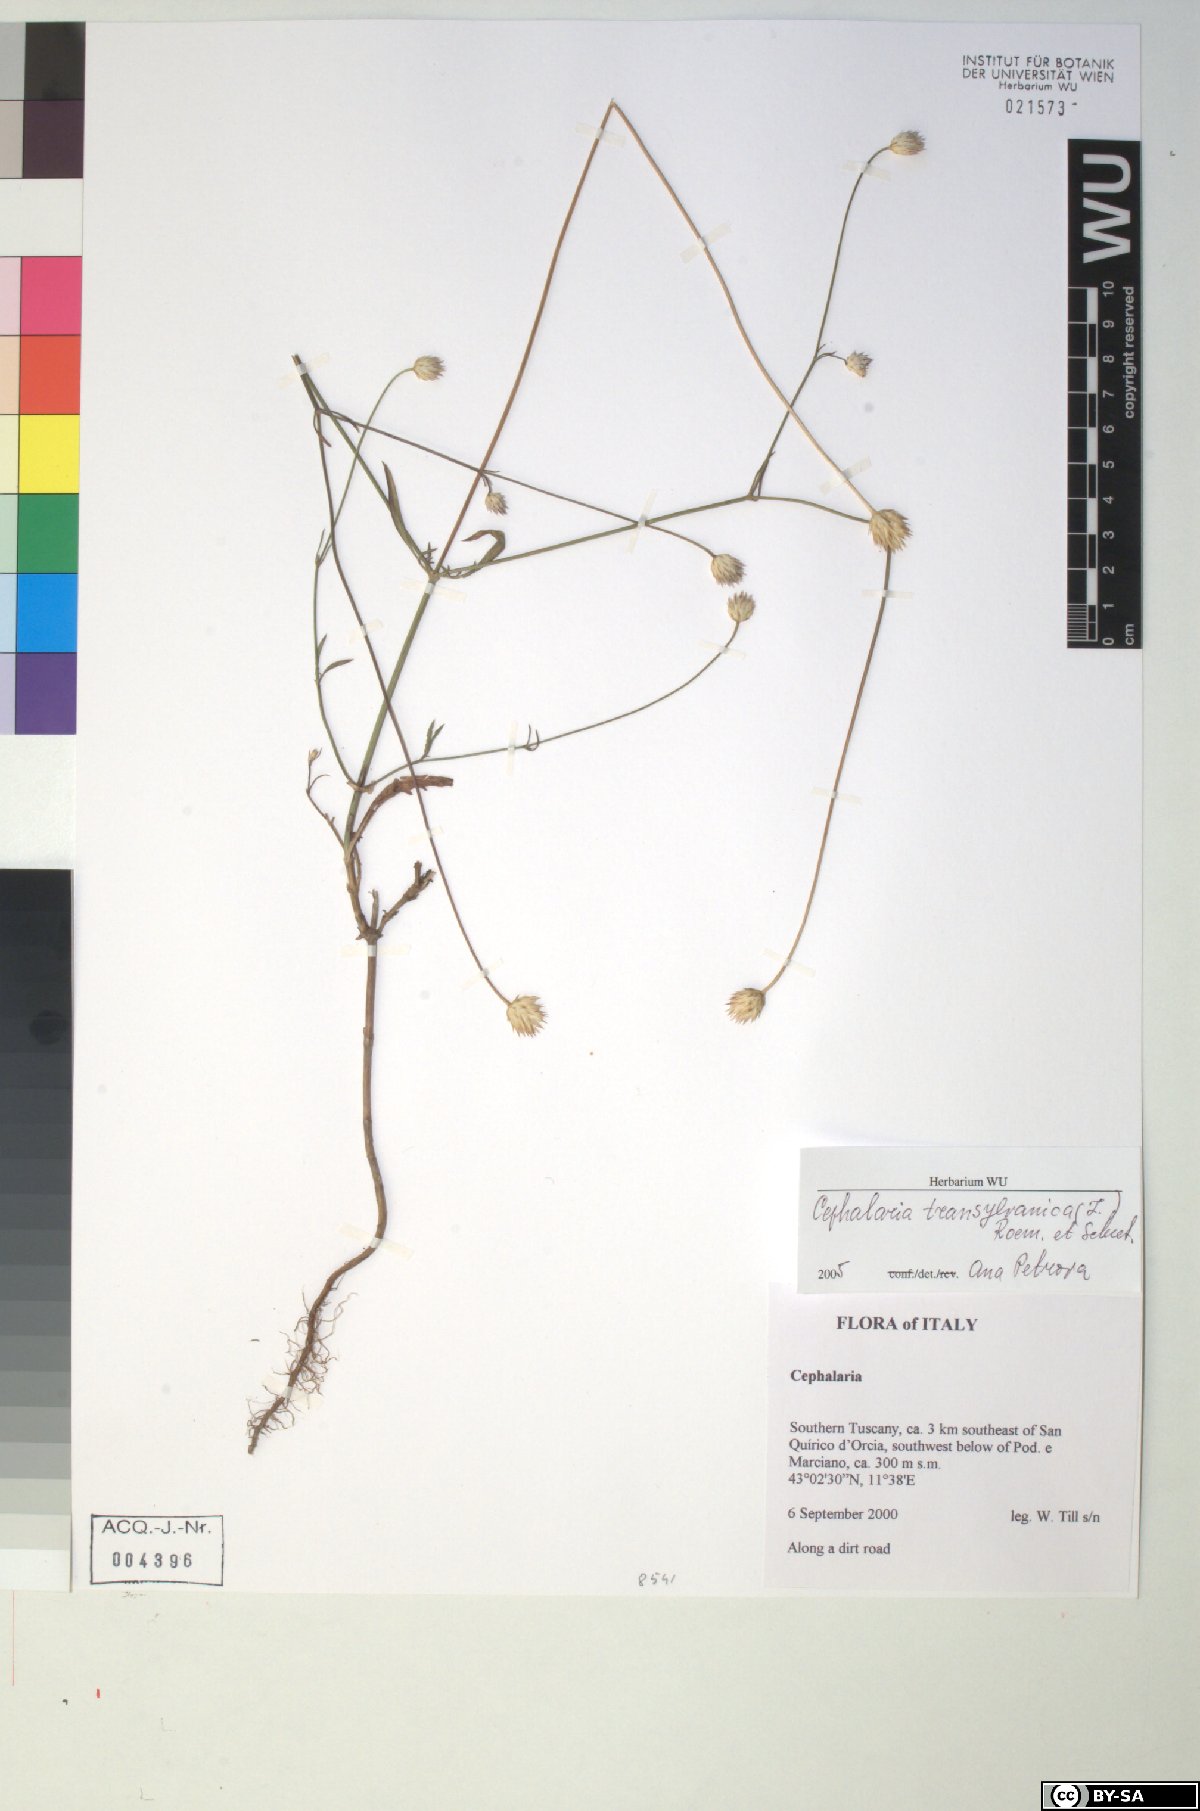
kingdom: Plantae
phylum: Tracheophyta
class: Magnoliopsida
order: Dipsacales
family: Caprifoliaceae
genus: Cephalaria
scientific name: Cephalaria transsylvanica
